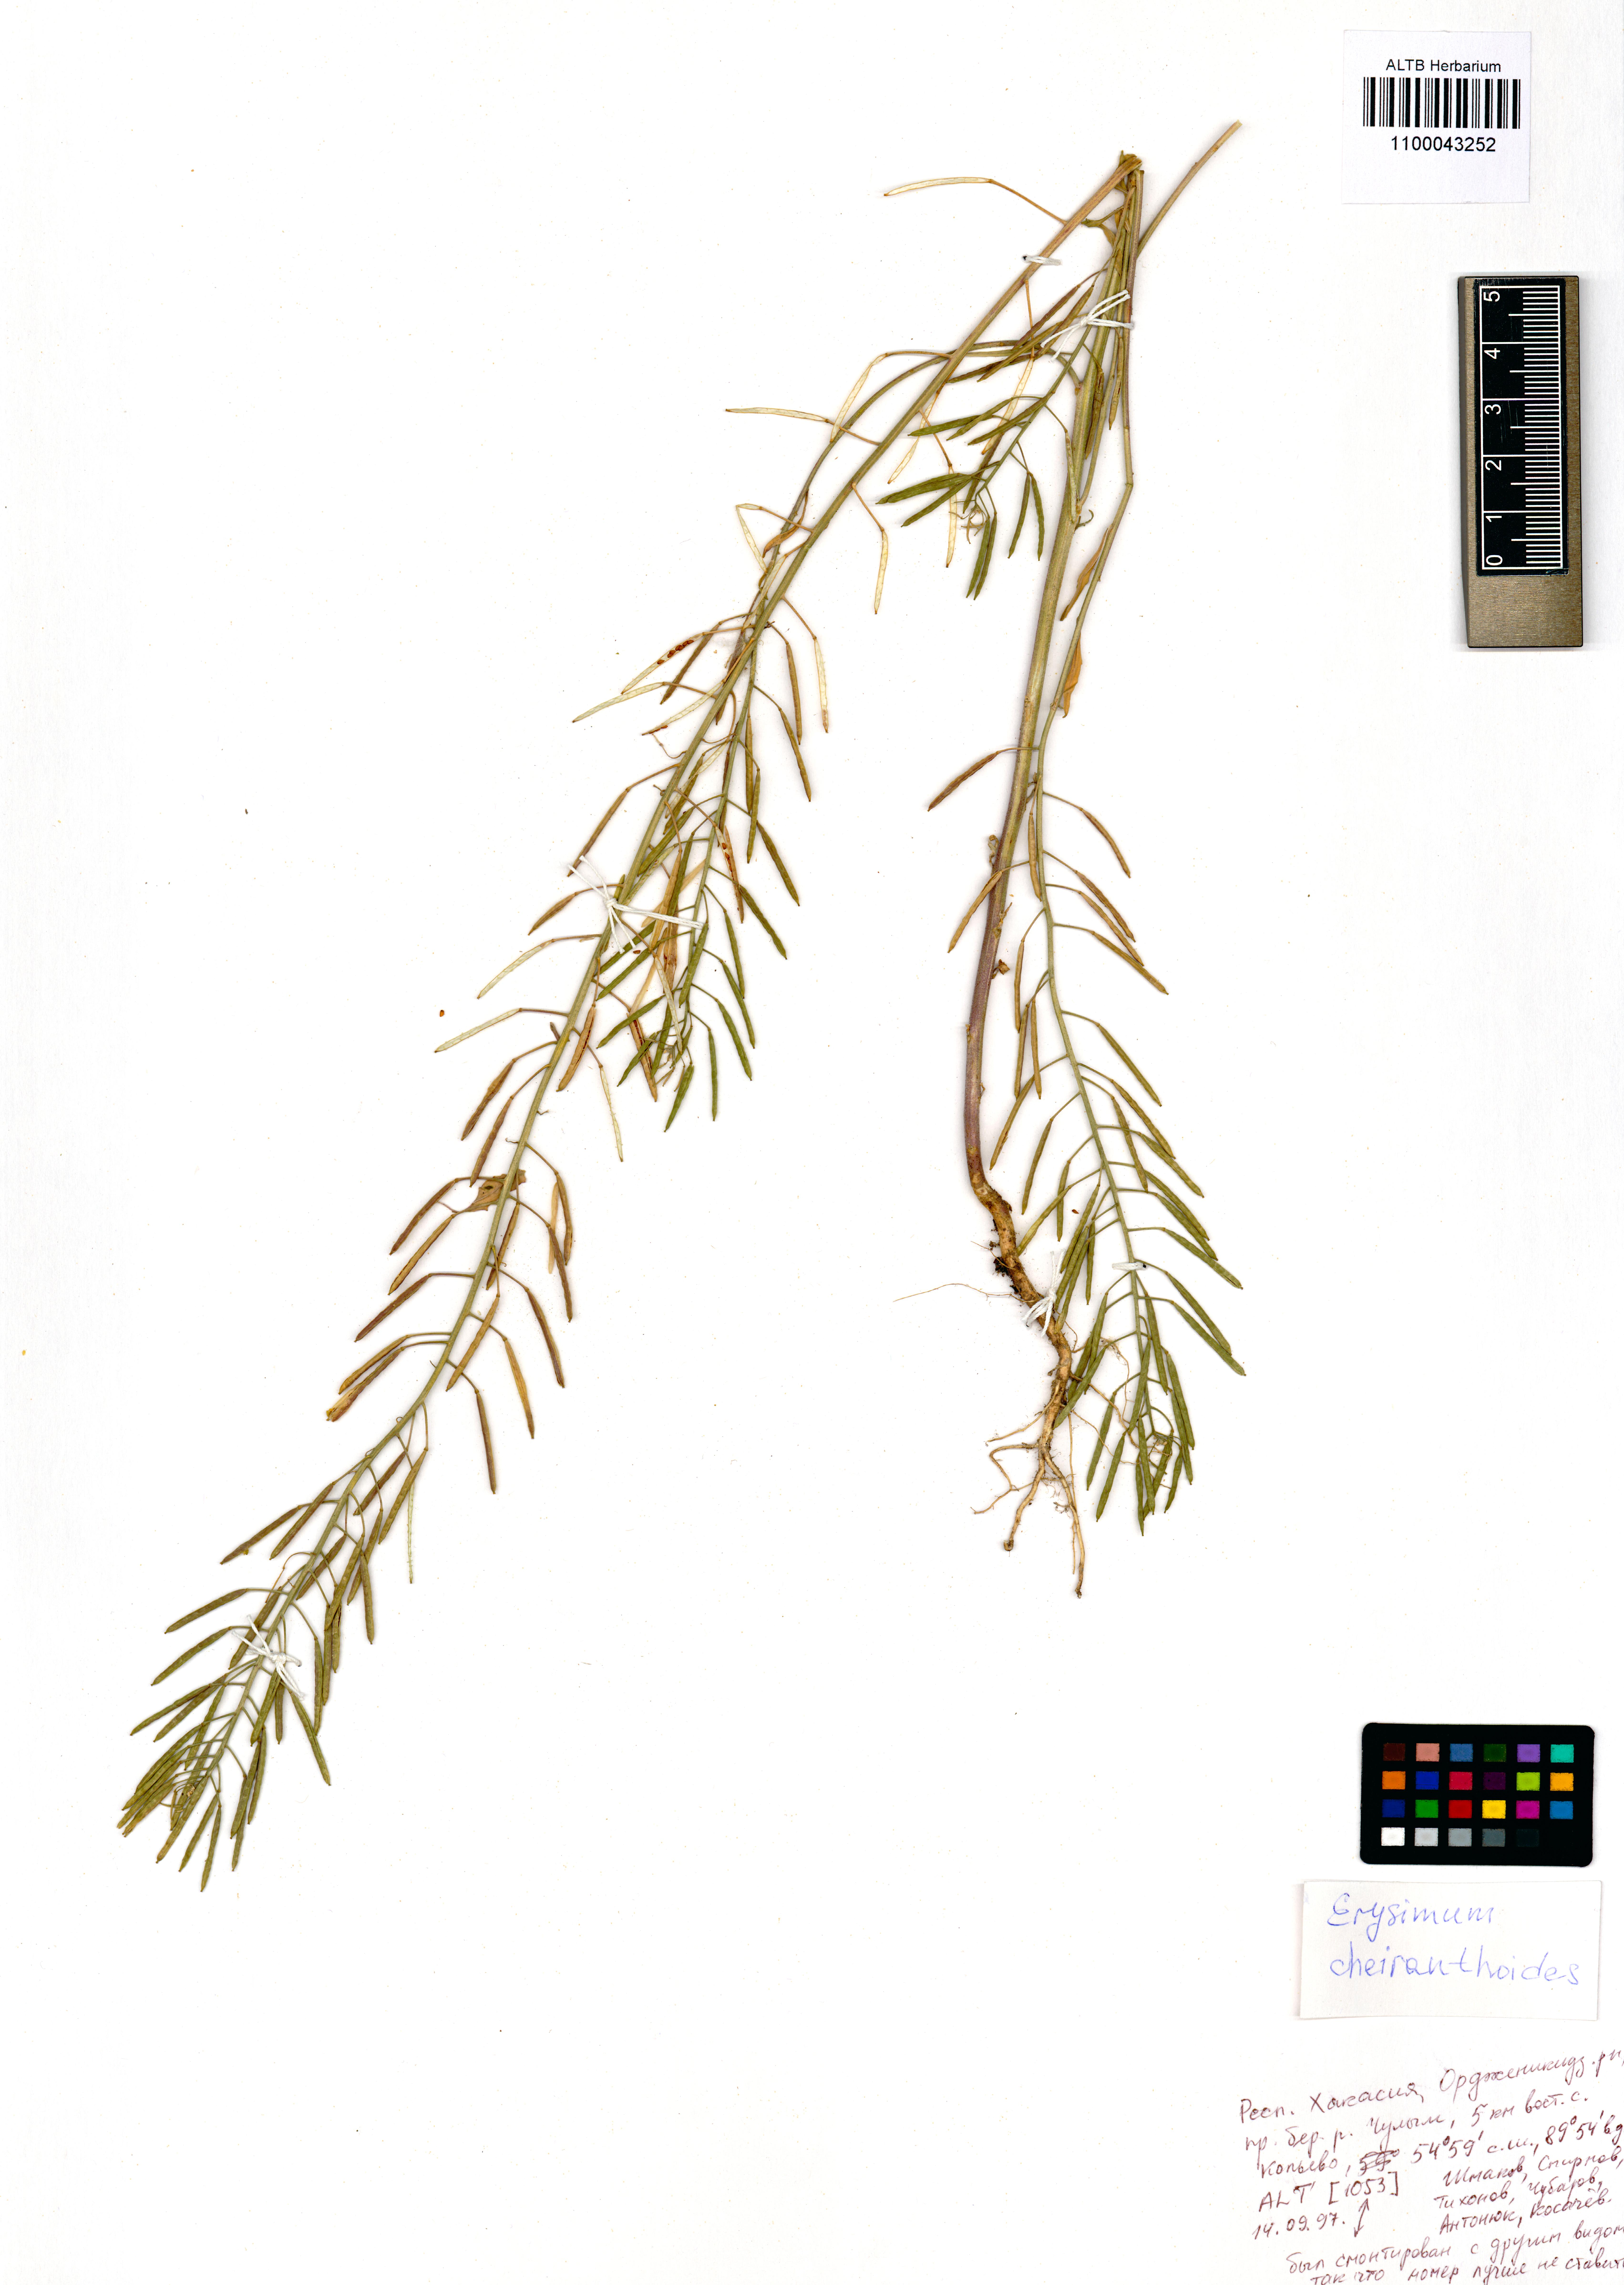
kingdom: Plantae
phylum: Tracheophyta
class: Magnoliopsida
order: Brassicales
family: Brassicaceae
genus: Erysimum
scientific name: Erysimum cheiranthoides
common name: Treacle mustard
